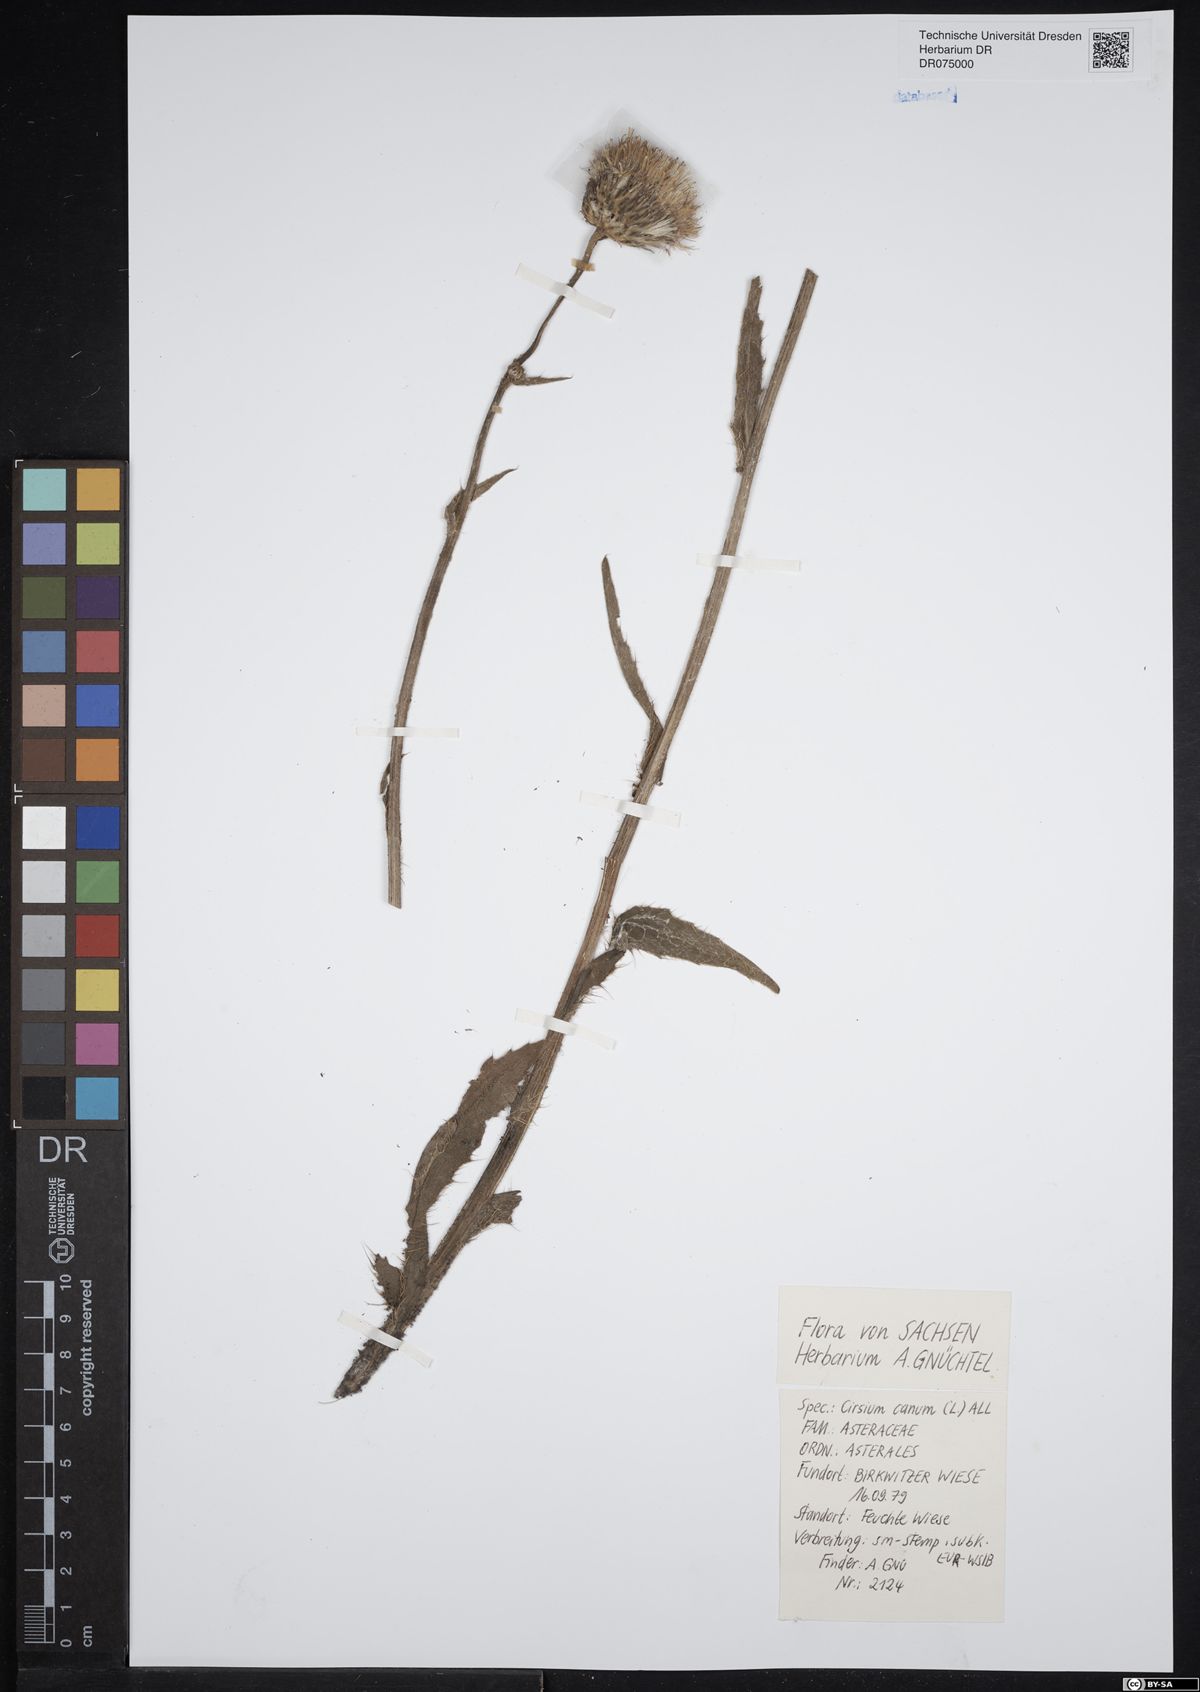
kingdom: Plantae
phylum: Tracheophyta
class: Magnoliopsida
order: Asterales
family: Asteraceae
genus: Cirsium
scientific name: Cirsium canum
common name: Queen anne's thistle
